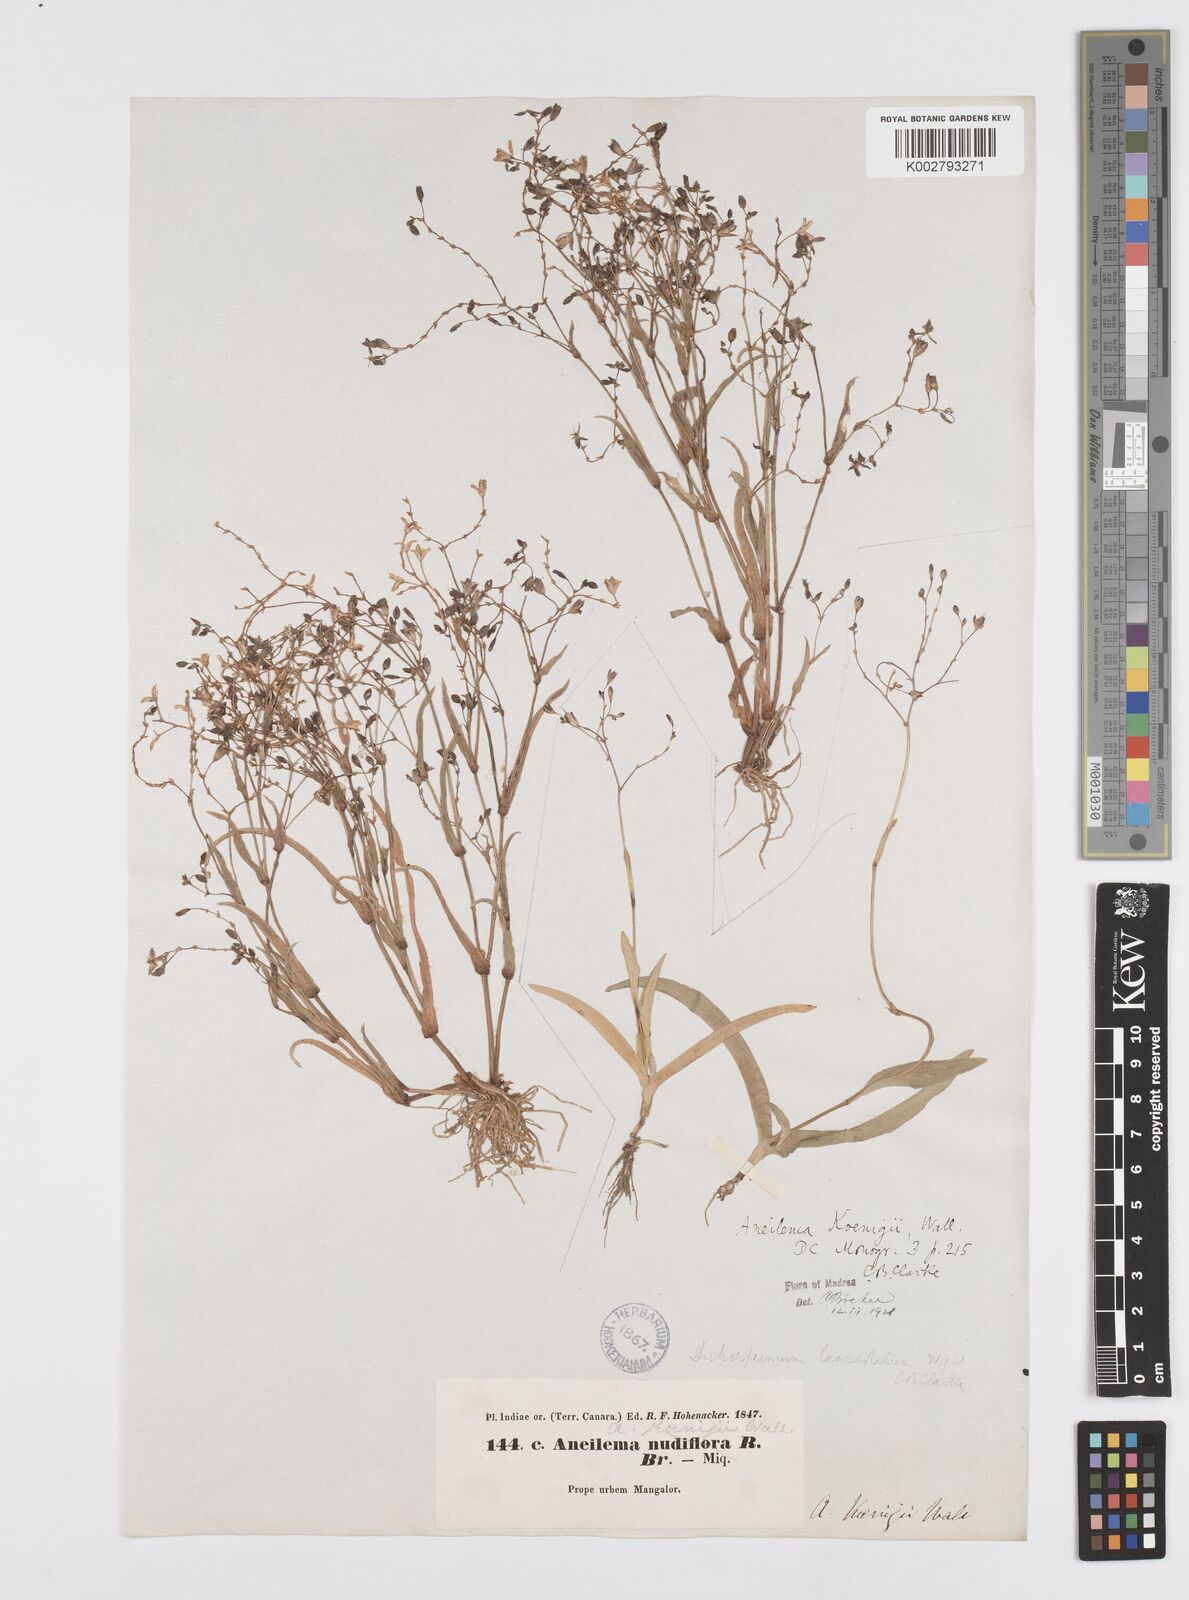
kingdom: Plantae
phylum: Tracheophyta
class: Liliopsida
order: Commelinales
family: Commelinaceae
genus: Murdannia
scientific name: Murdannia lanceolata
